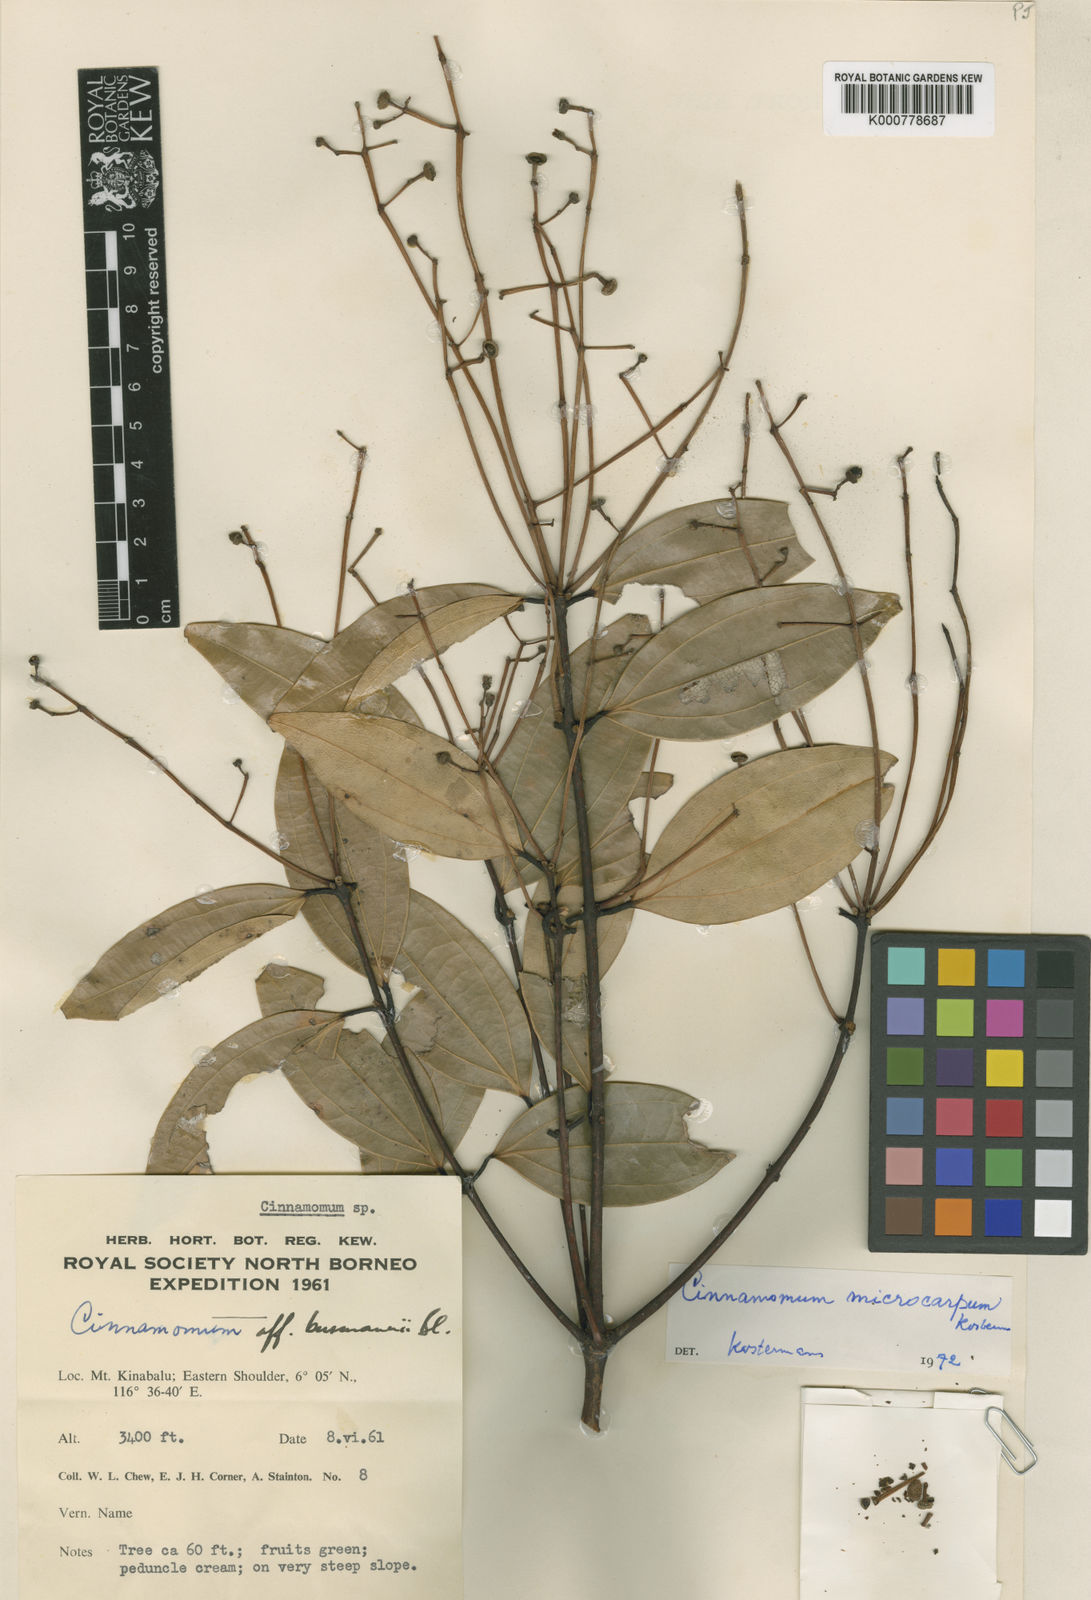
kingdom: Plantae
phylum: Tracheophyta
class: Magnoliopsida
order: Laurales
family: Lauraceae
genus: Cinnamomum
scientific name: Cinnamomum pendulum
